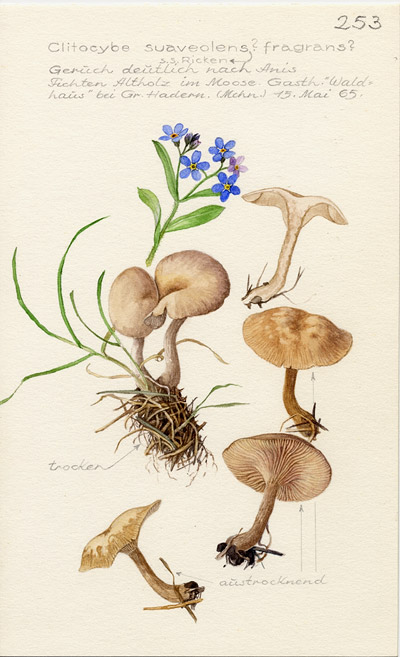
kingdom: Fungi
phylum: Basidiomycota
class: Agaricomycetes
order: Agaricales
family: Tricholomataceae
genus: Clitocybe
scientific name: Clitocybe fragrans
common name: Fragrant funnel
